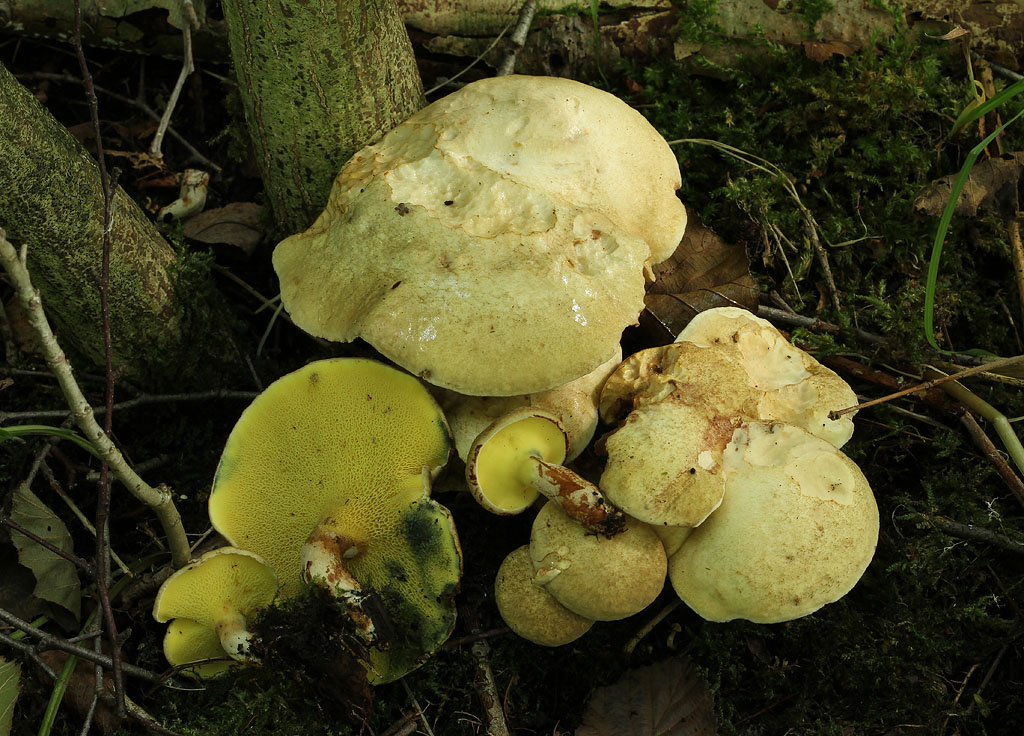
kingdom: Fungi
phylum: Basidiomycota
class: Agaricomycetes
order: Boletales
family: Paxillaceae
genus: Gyrodon
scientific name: Gyrodon lividus
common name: ellerørhat
